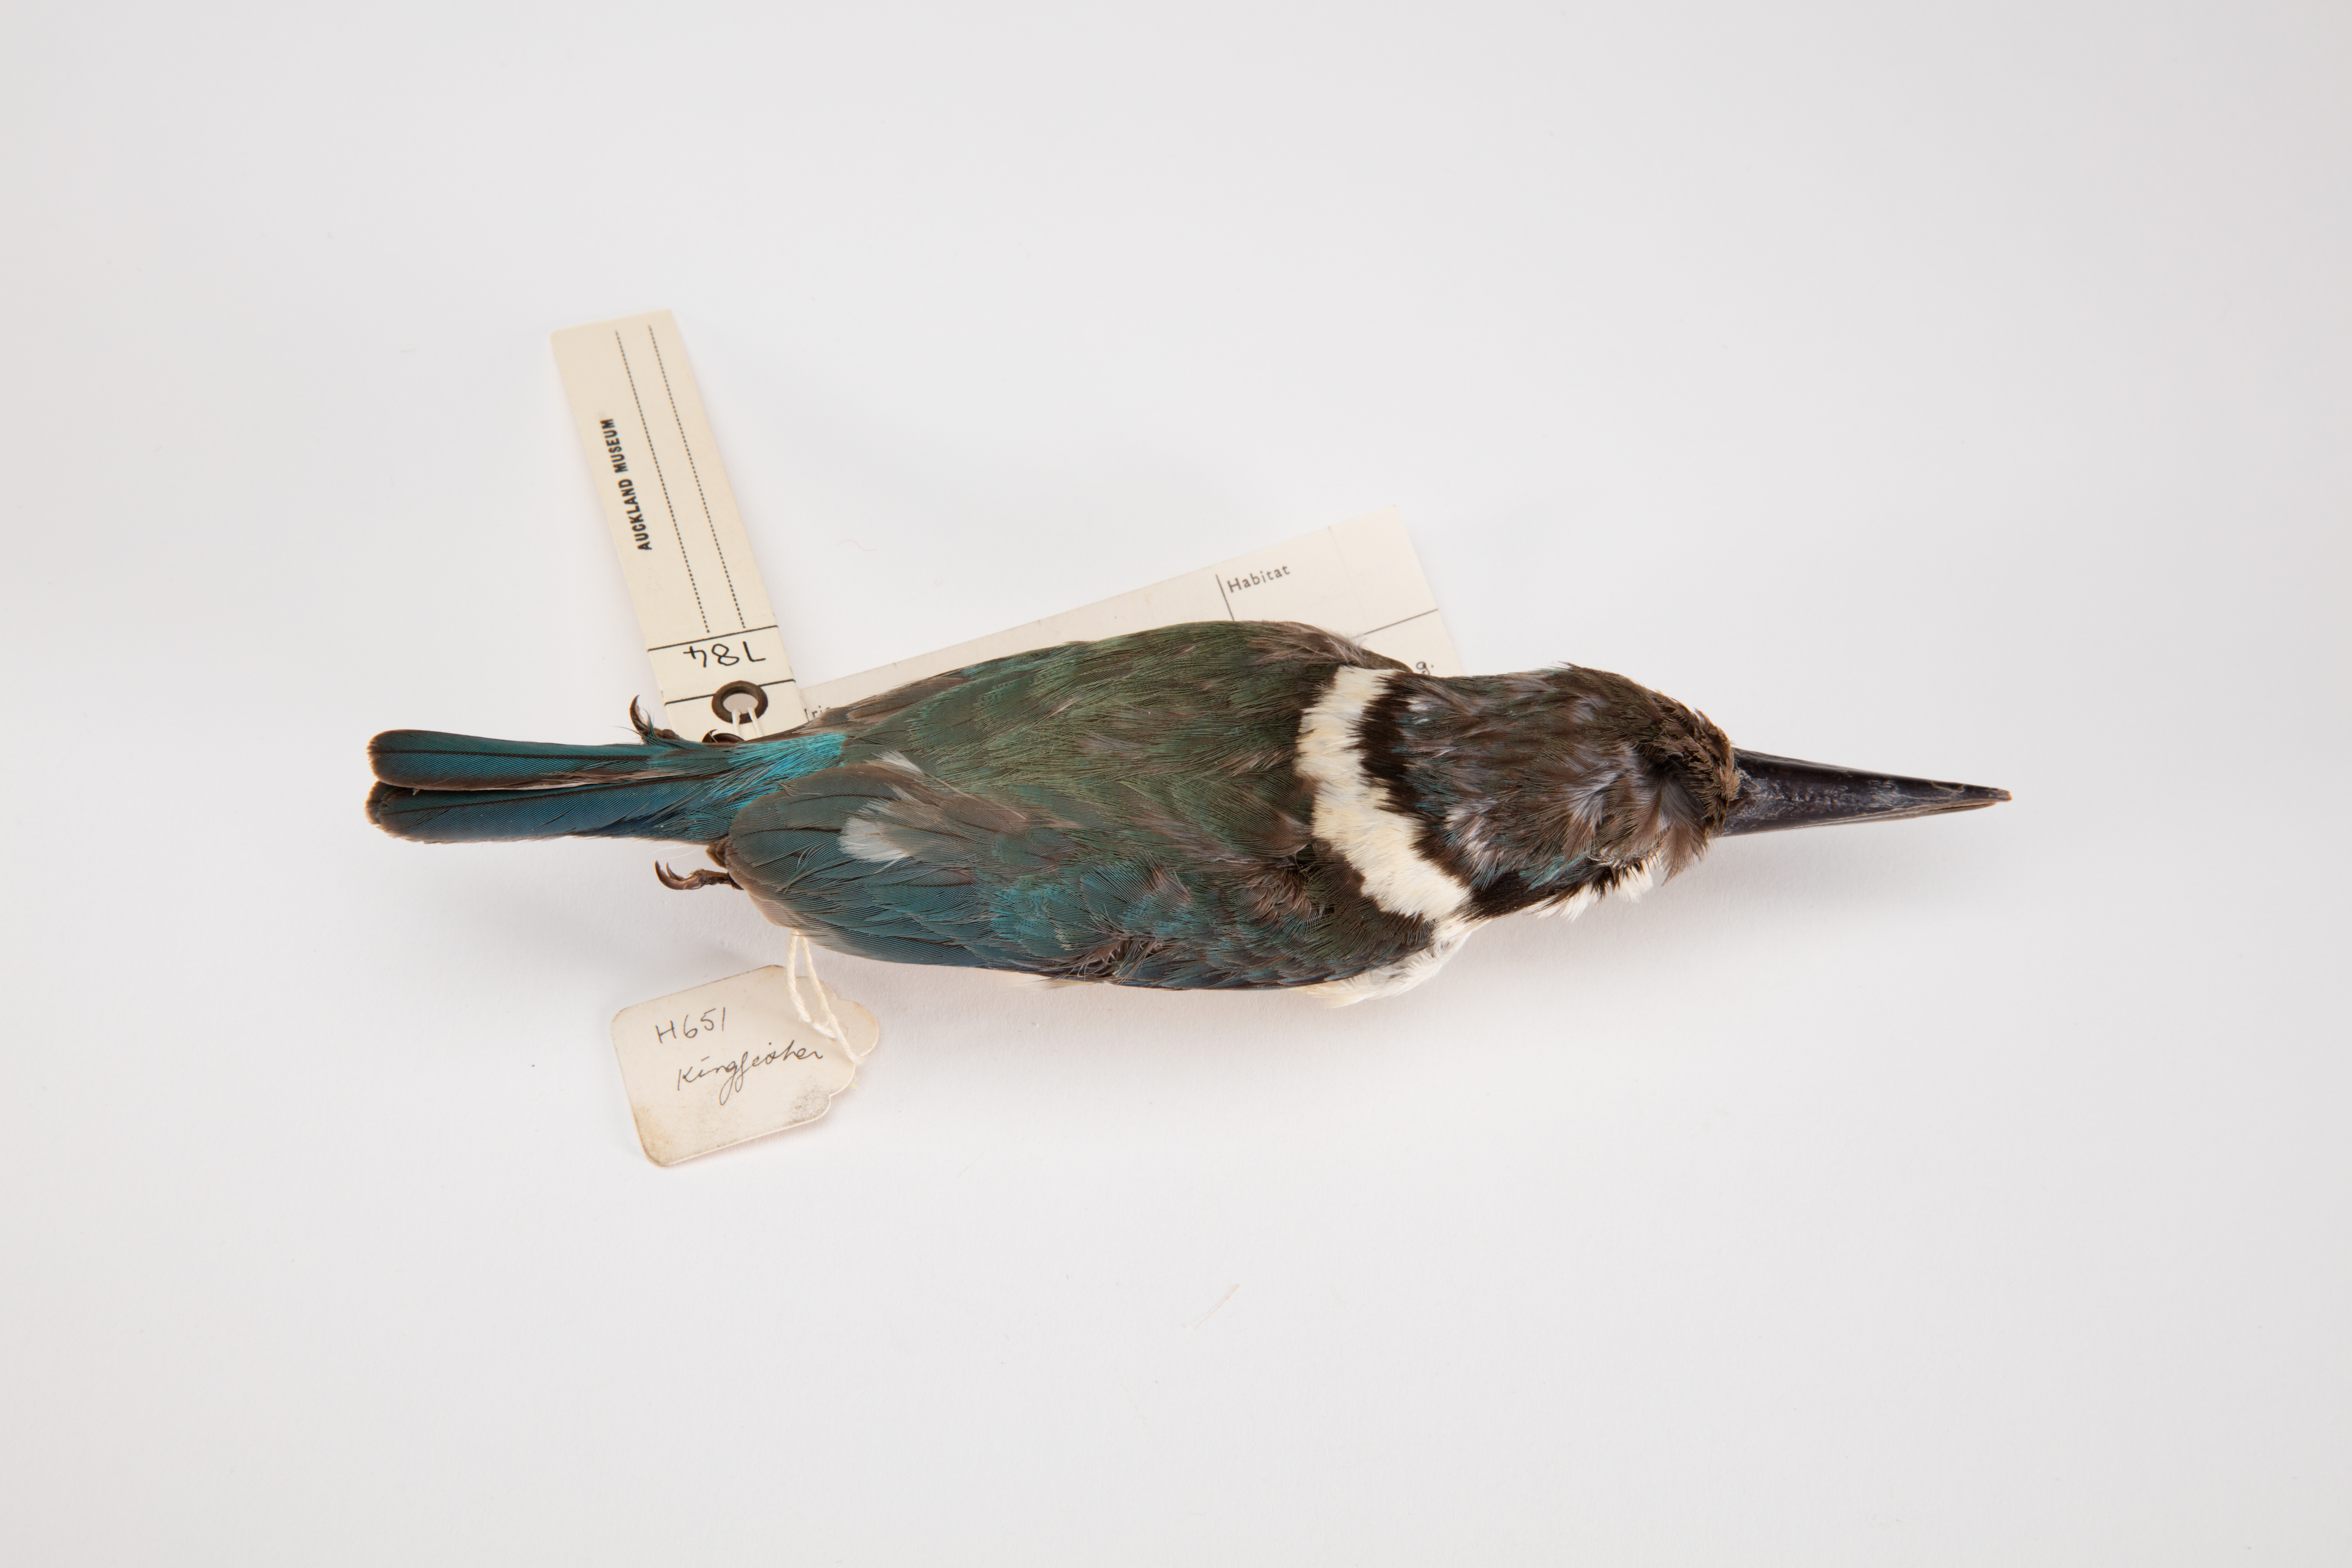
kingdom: Animalia
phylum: Chordata
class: Aves
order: Coraciiformes
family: Alcedinidae
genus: Todiramphus
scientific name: Todiramphus sanctus
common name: Sacred kingfisher
